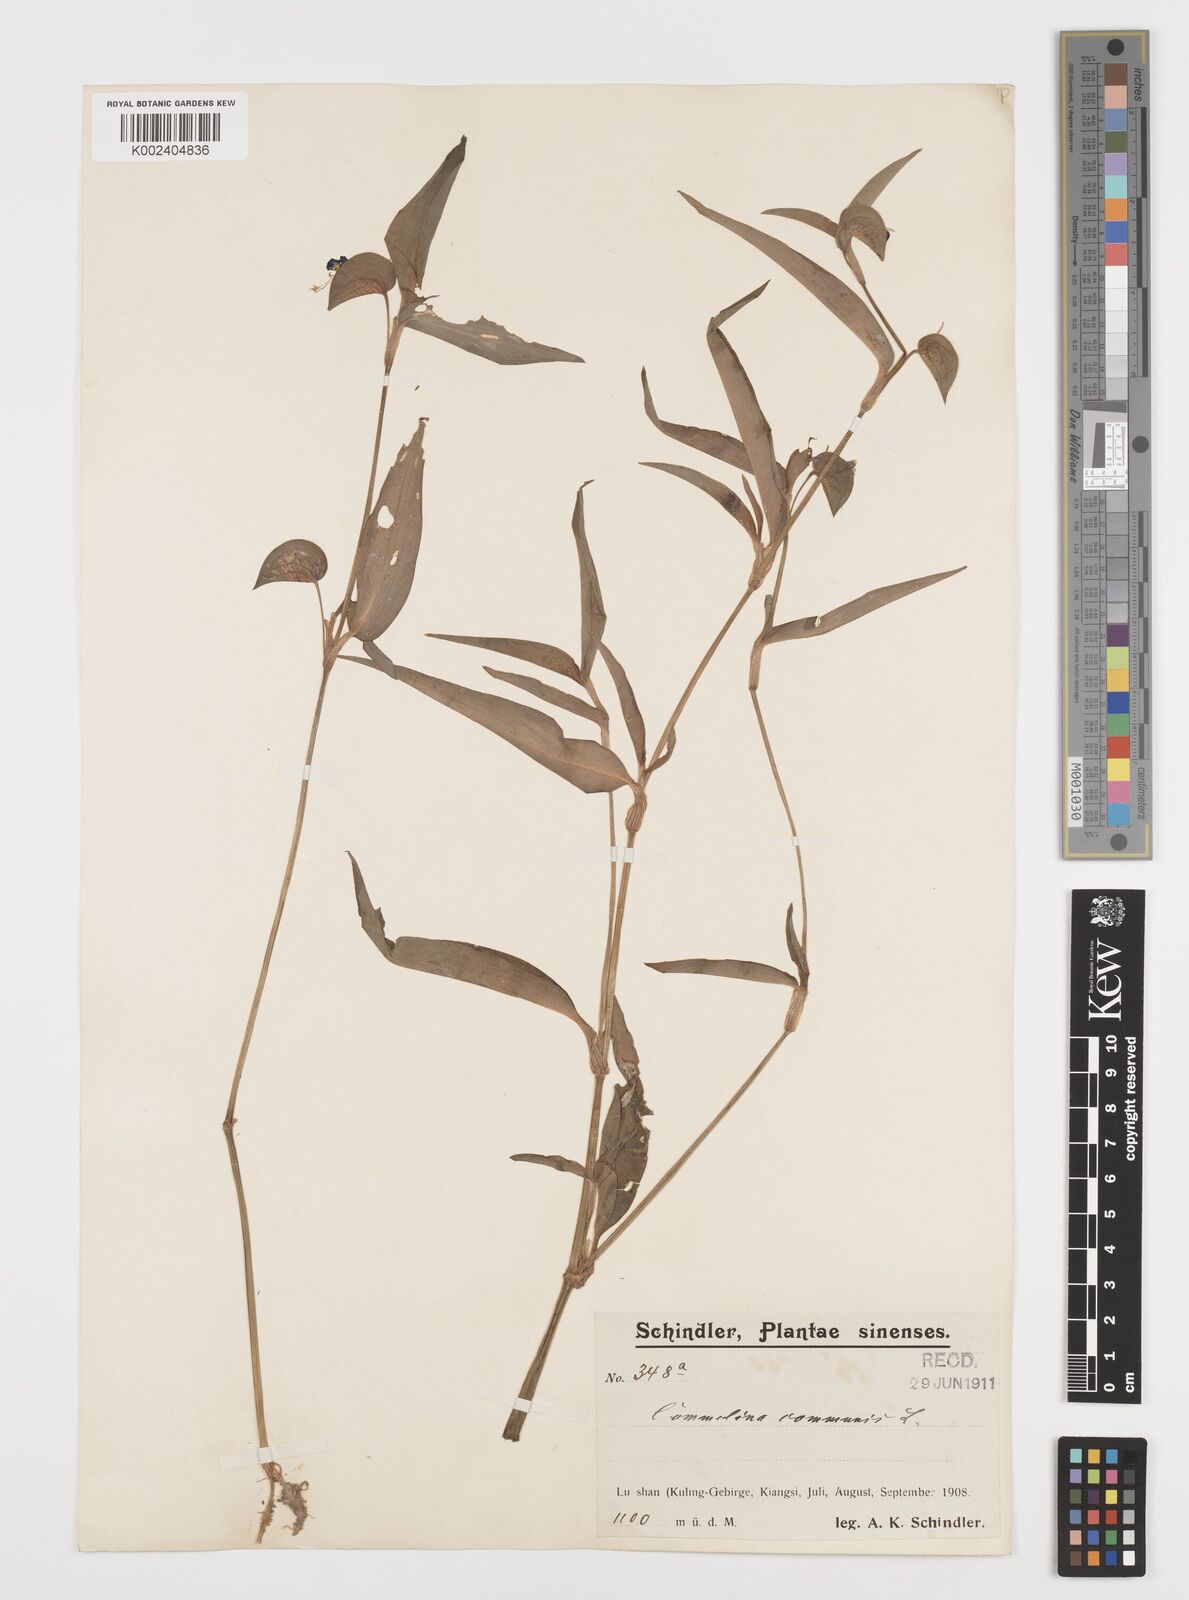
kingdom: Plantae
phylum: Tracheophyta
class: Liliopsida
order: Commelinales
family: Commelinaceae
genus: Commelina
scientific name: Commelina communis
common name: Asiatic dayflower
